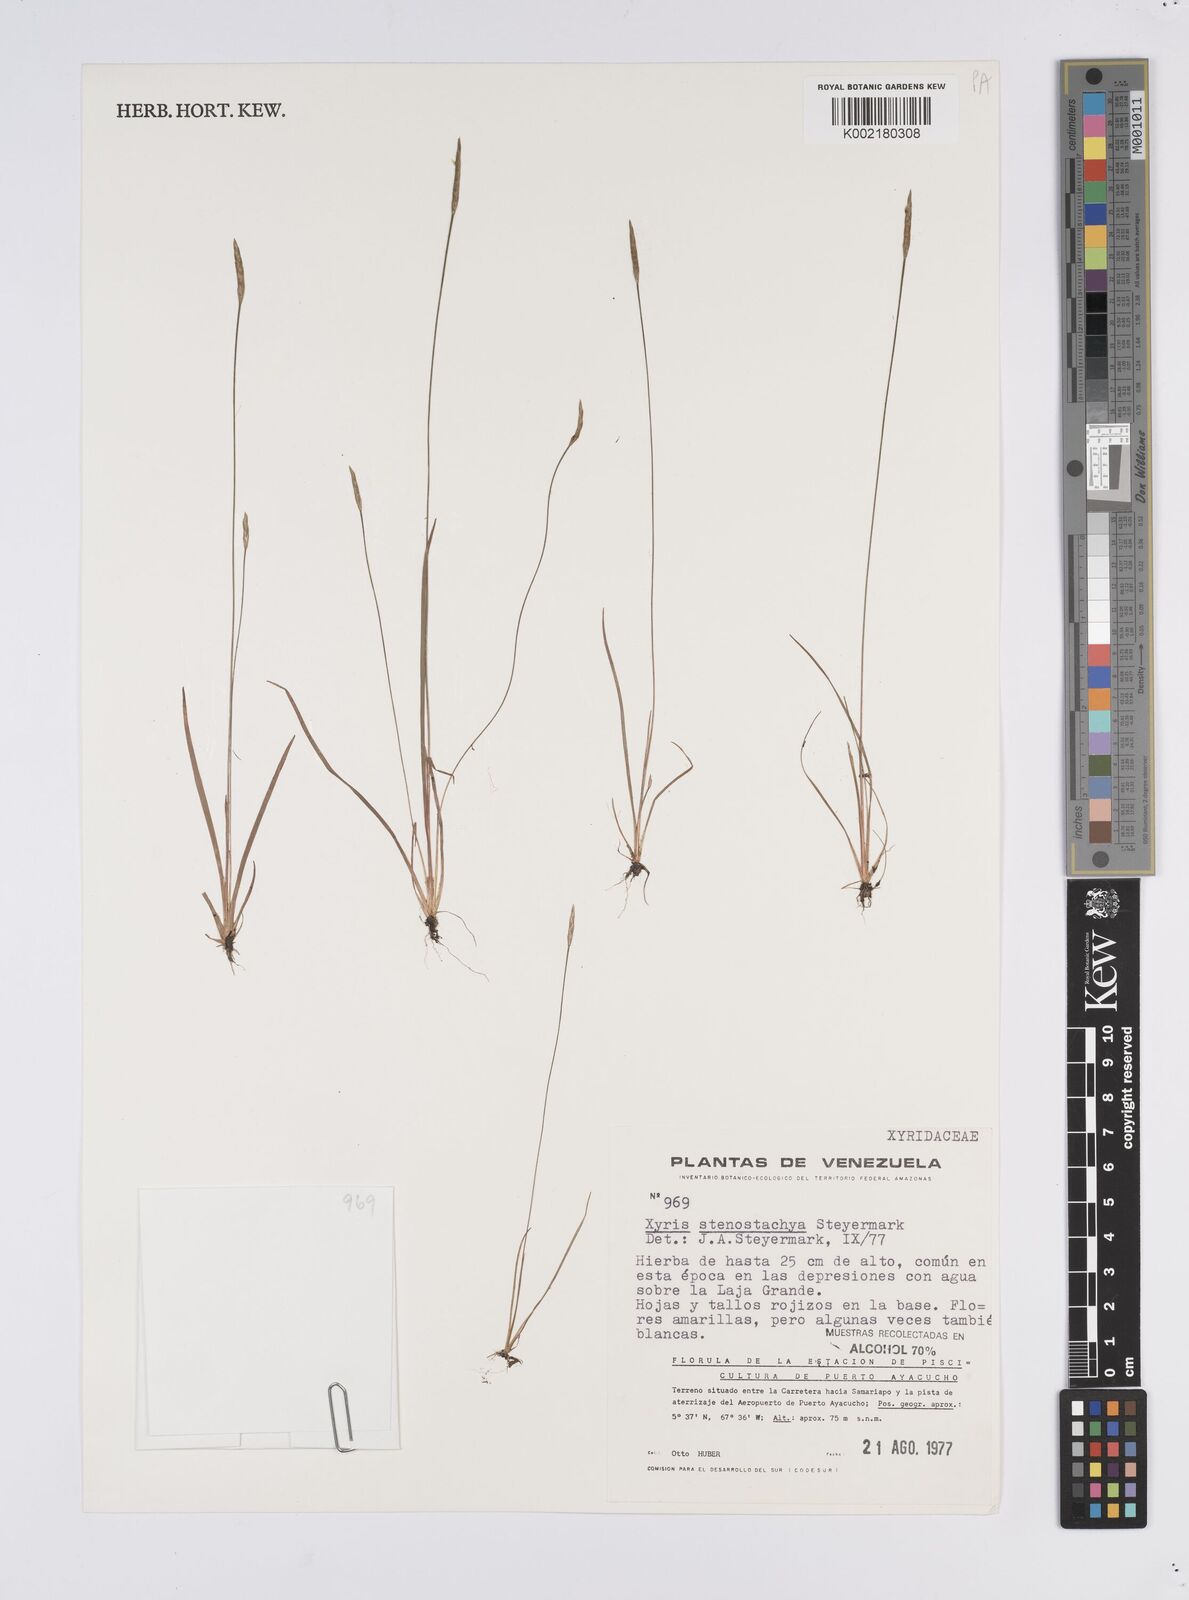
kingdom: Plantae
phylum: Tracheophyta
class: Liliopsida
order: Poales
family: Xyridaceae
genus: Xyris
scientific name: Xyris stenostachya
